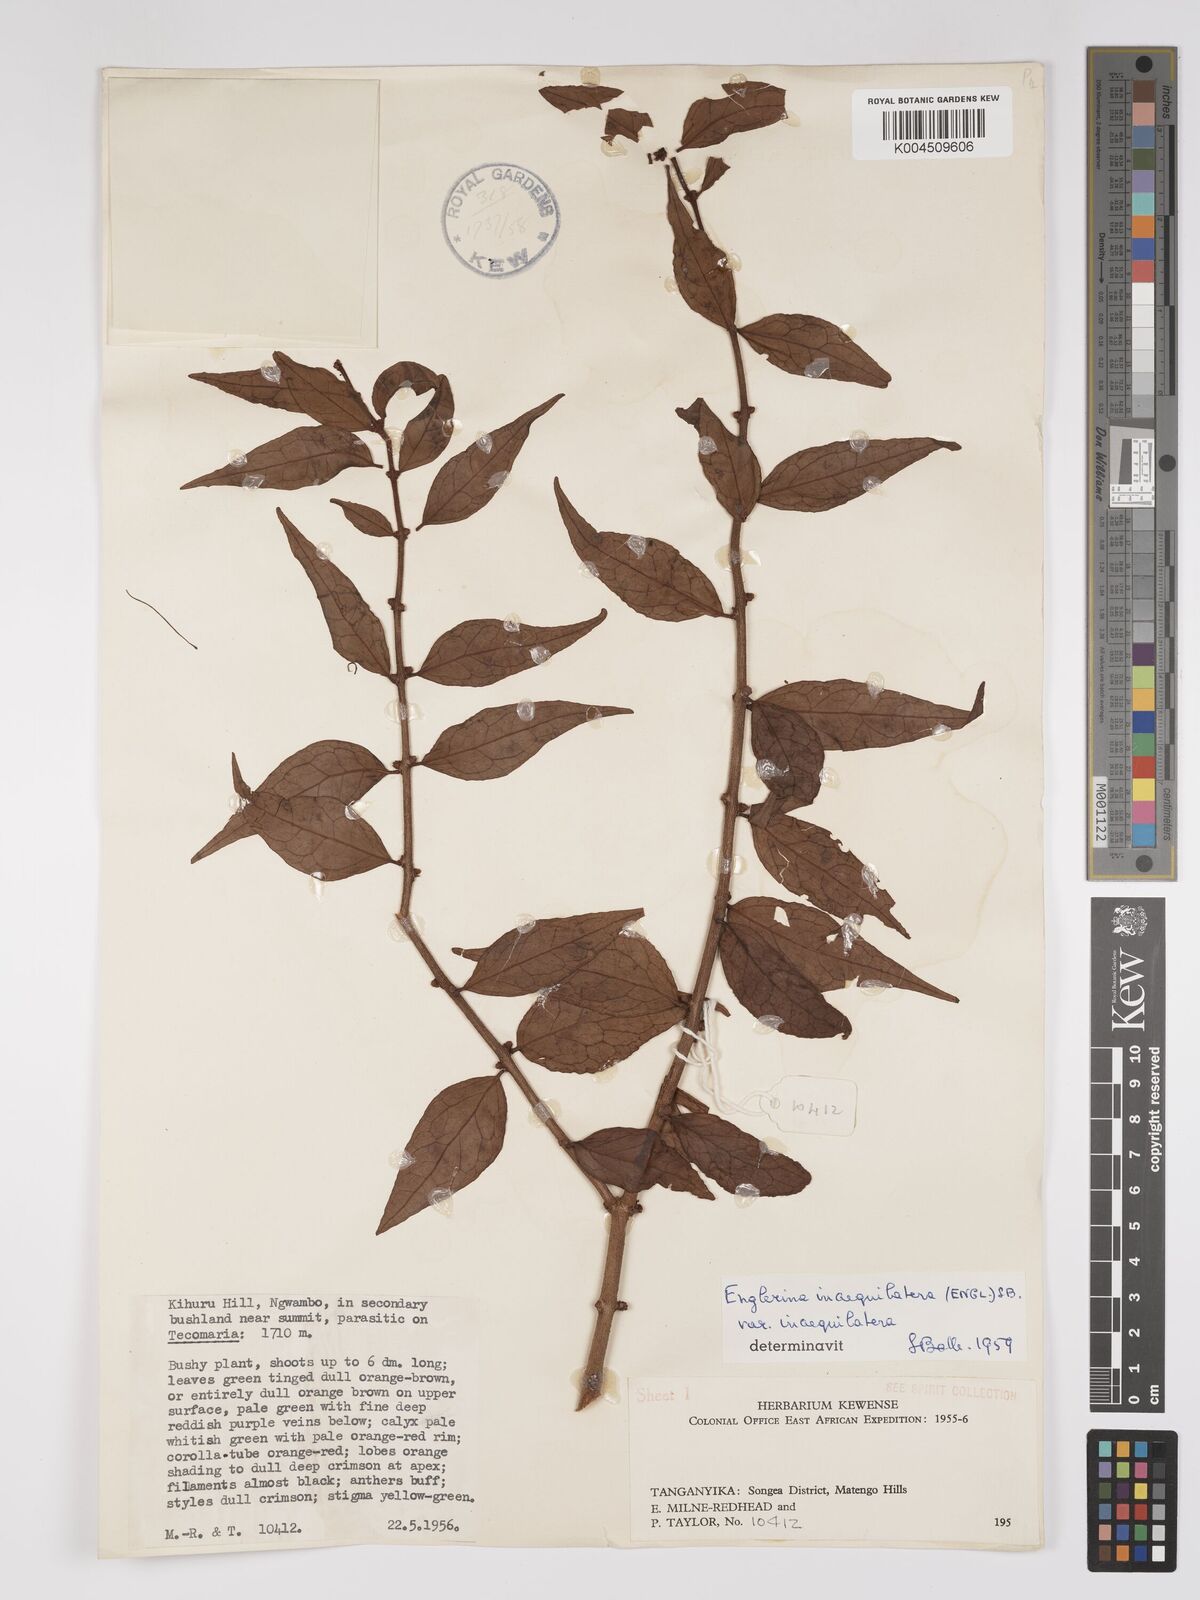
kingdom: Plantae
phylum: Tracheophyta
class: Magnoliopsida
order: Santalales
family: Loranthaceae
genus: Englerina
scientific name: Englerina inaequilatera
